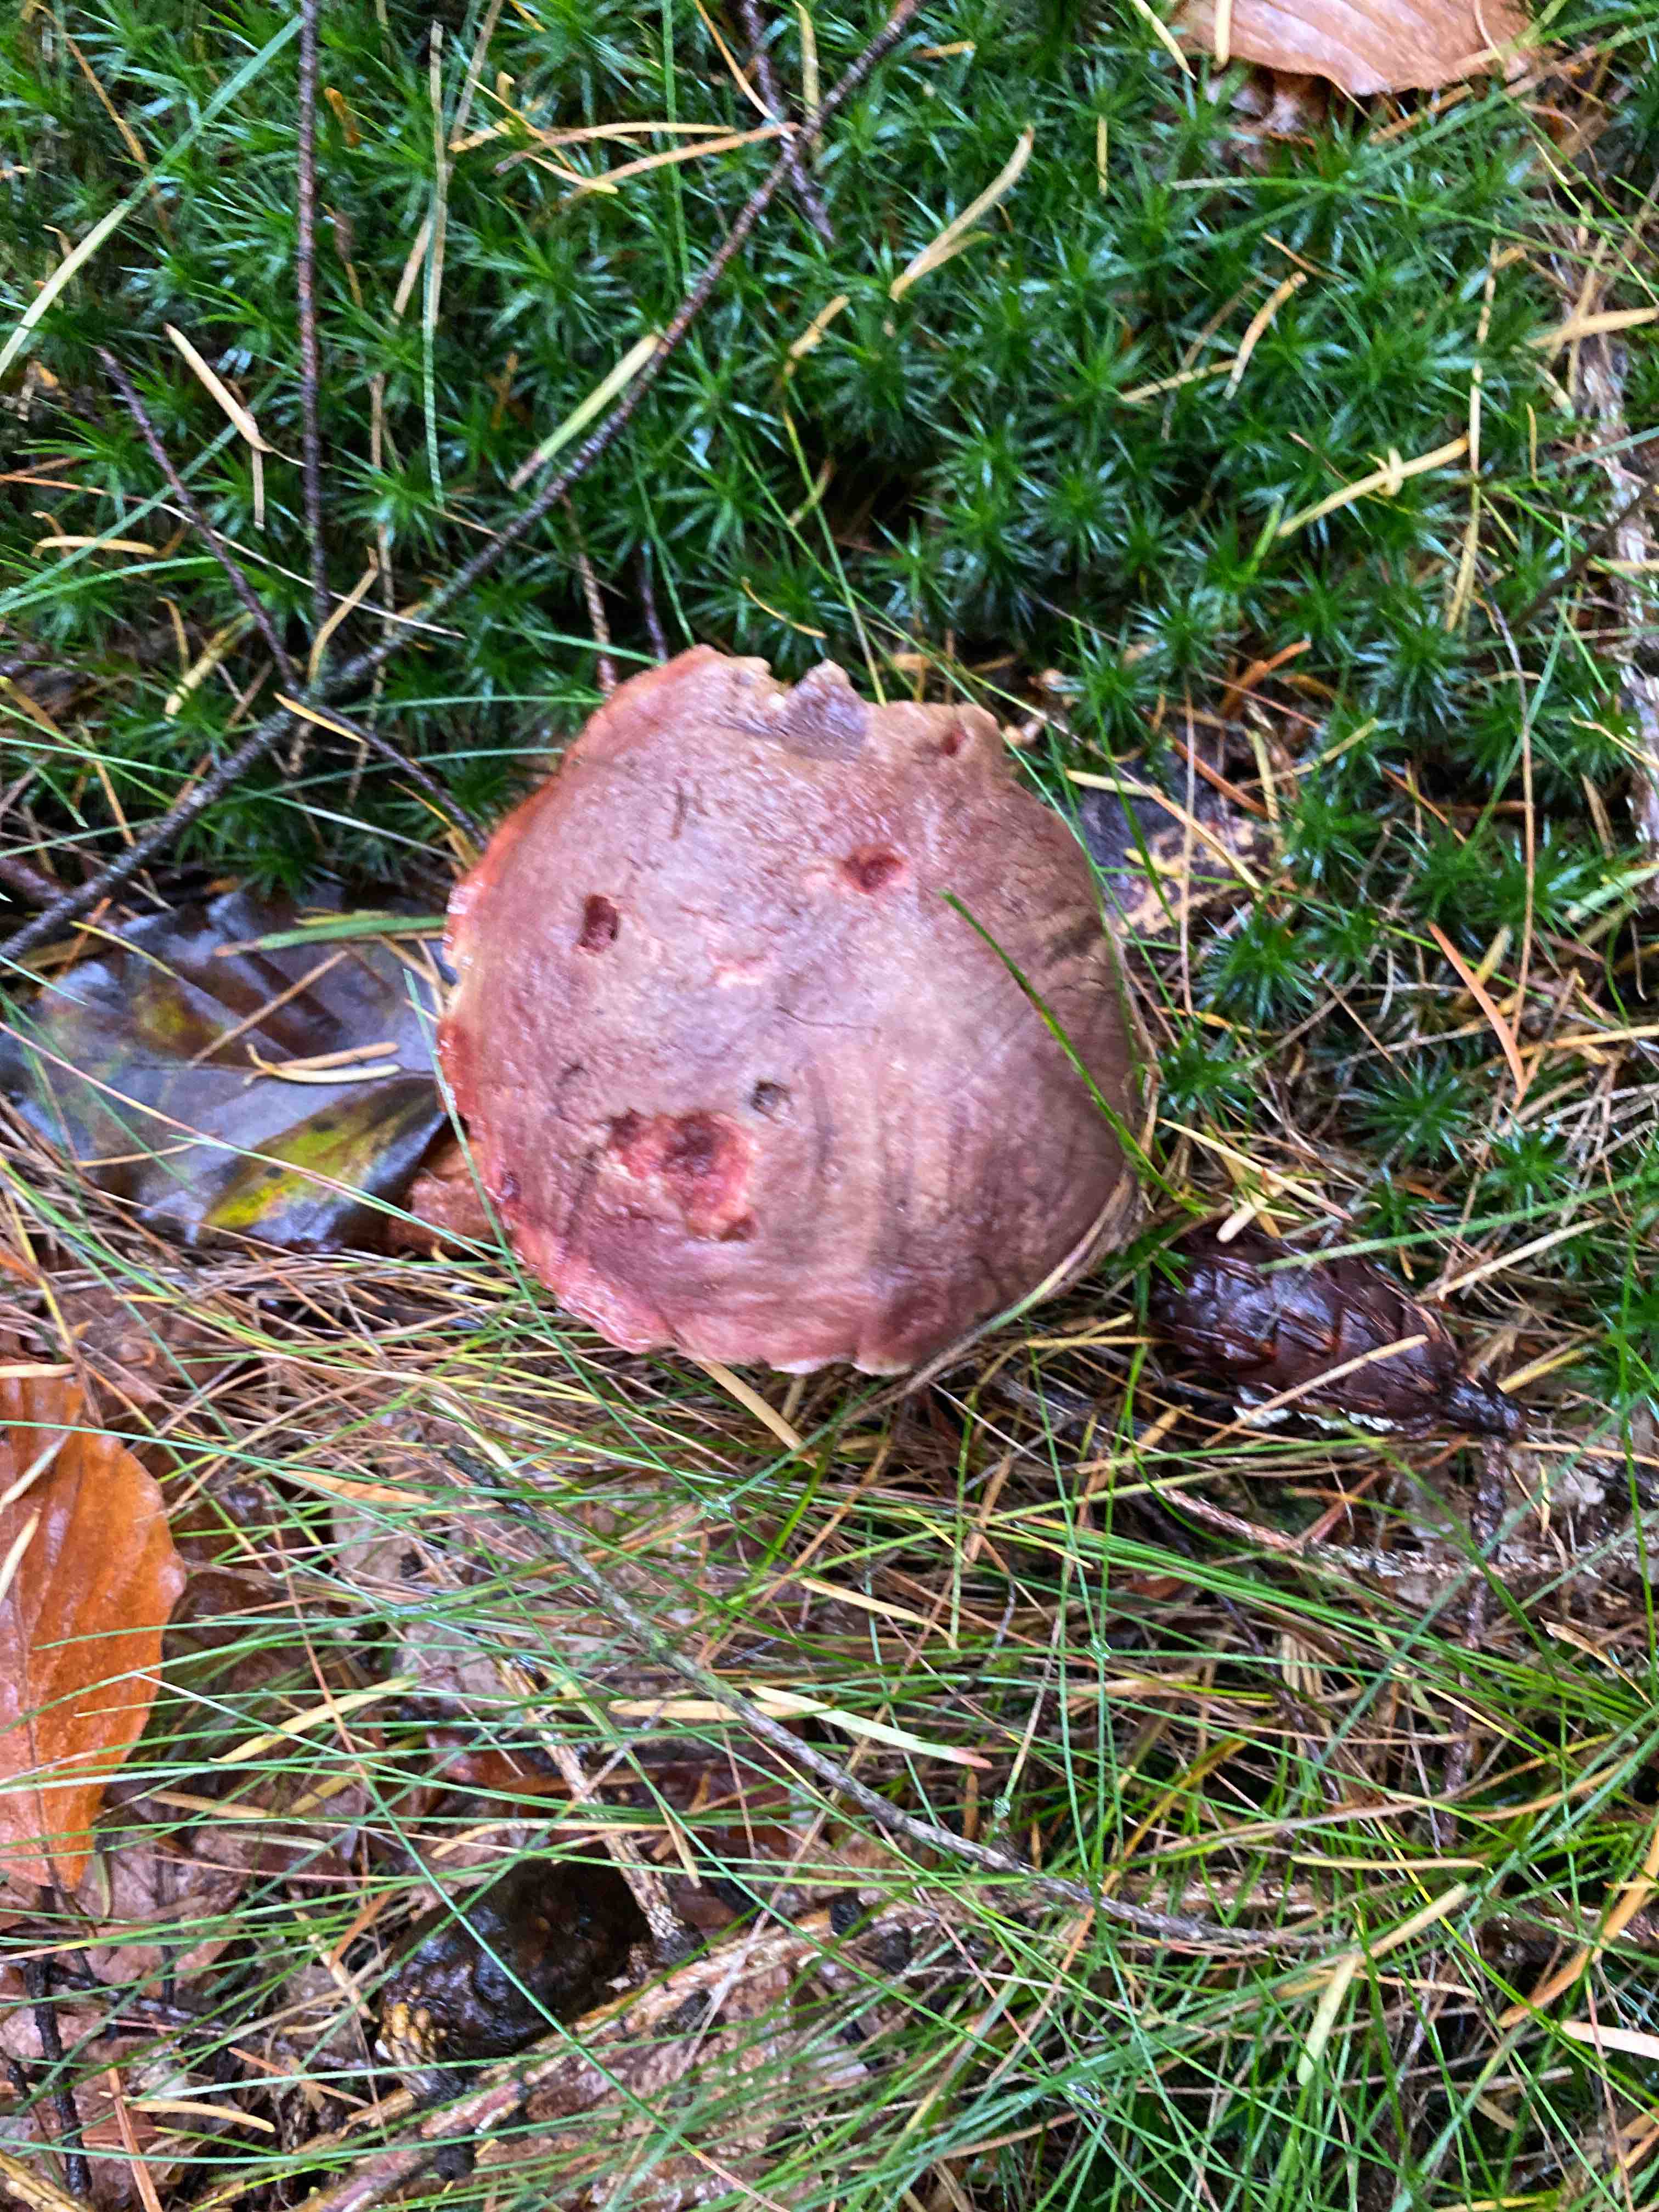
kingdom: Fungi
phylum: Basidiomycota
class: Agaricomycetes
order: Boletales
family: Boletaceae
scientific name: Boletaceae
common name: rørhatfamilien
